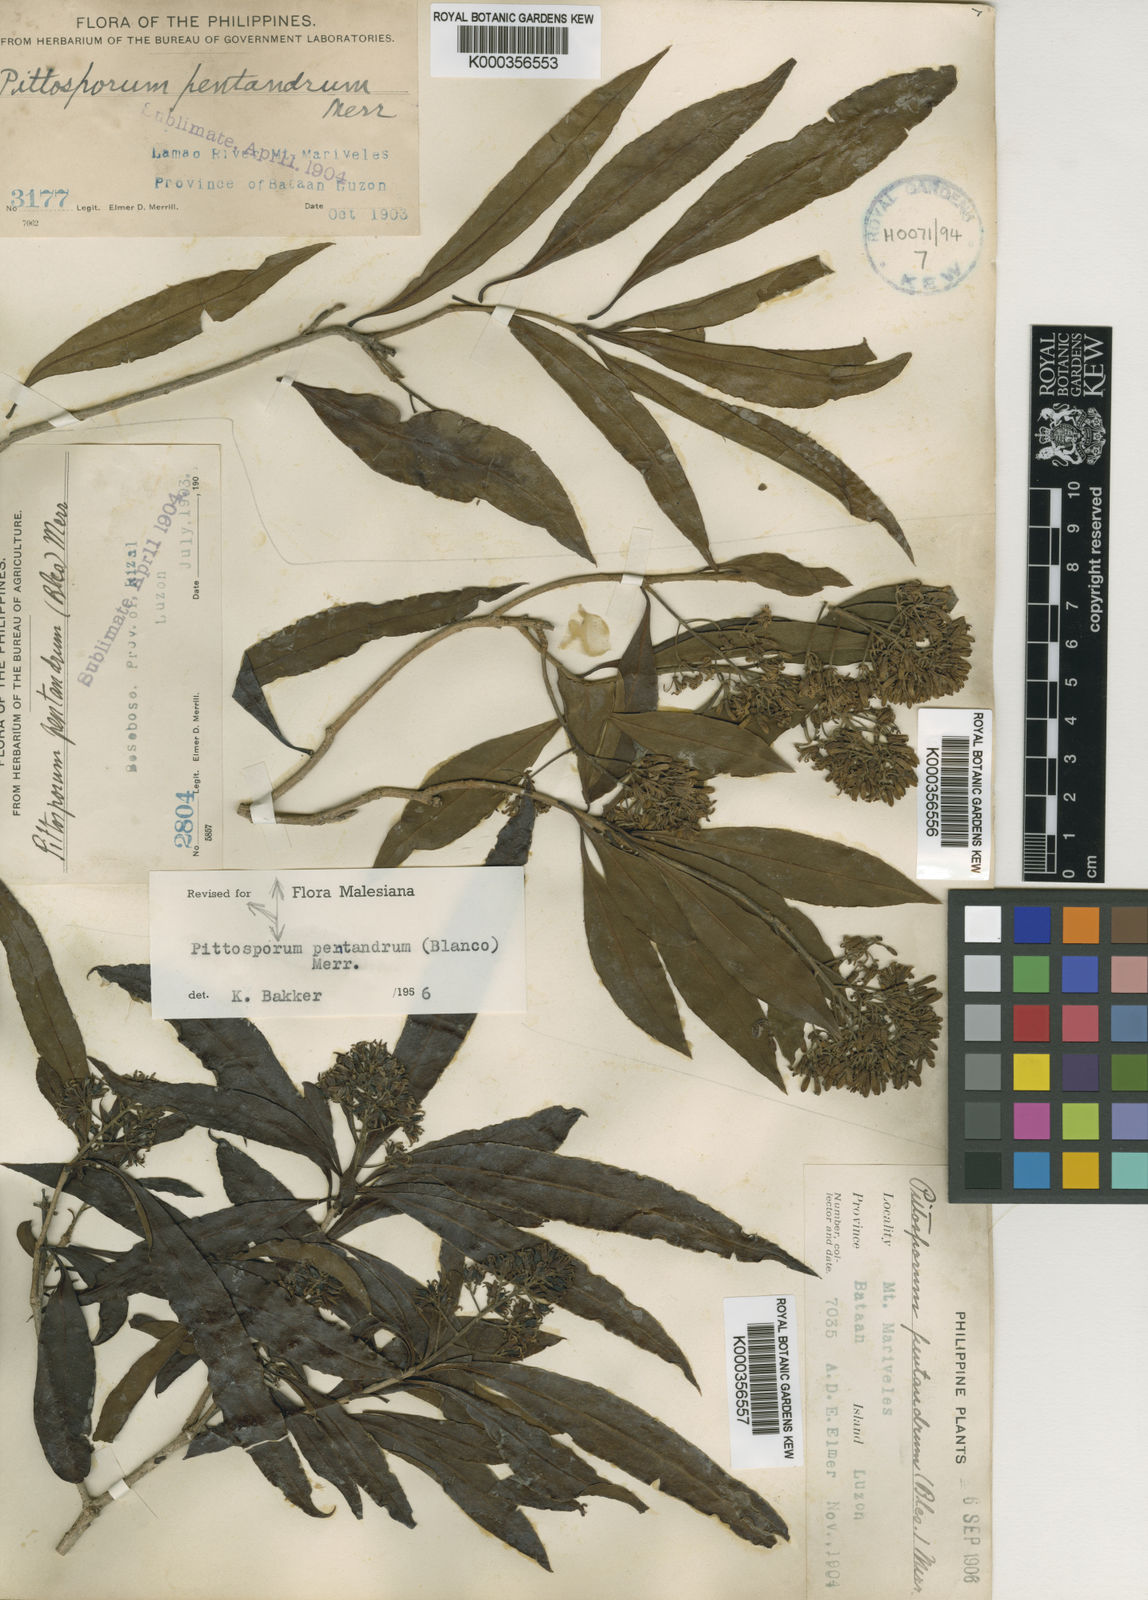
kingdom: Plantae
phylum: Tracheophyta
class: Magnoliopsida
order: Apiales
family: Pittosporaceae
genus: Pittosporum
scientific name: Pittosporum pentandrum
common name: Taiwanese cheesewood
